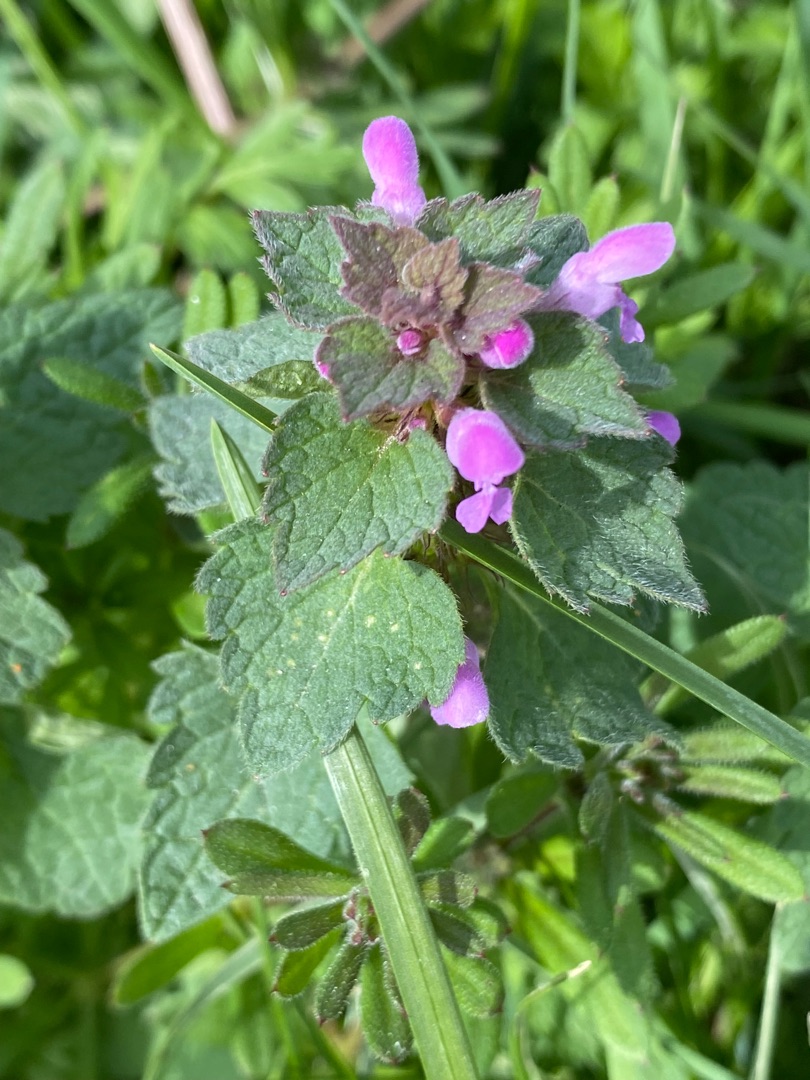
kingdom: Plantae
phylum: Tracheophyta
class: Magnoliopsida
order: Lamiales
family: Lamiaceae
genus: Lamium
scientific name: Lamium purpureum
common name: Rød tvetand
